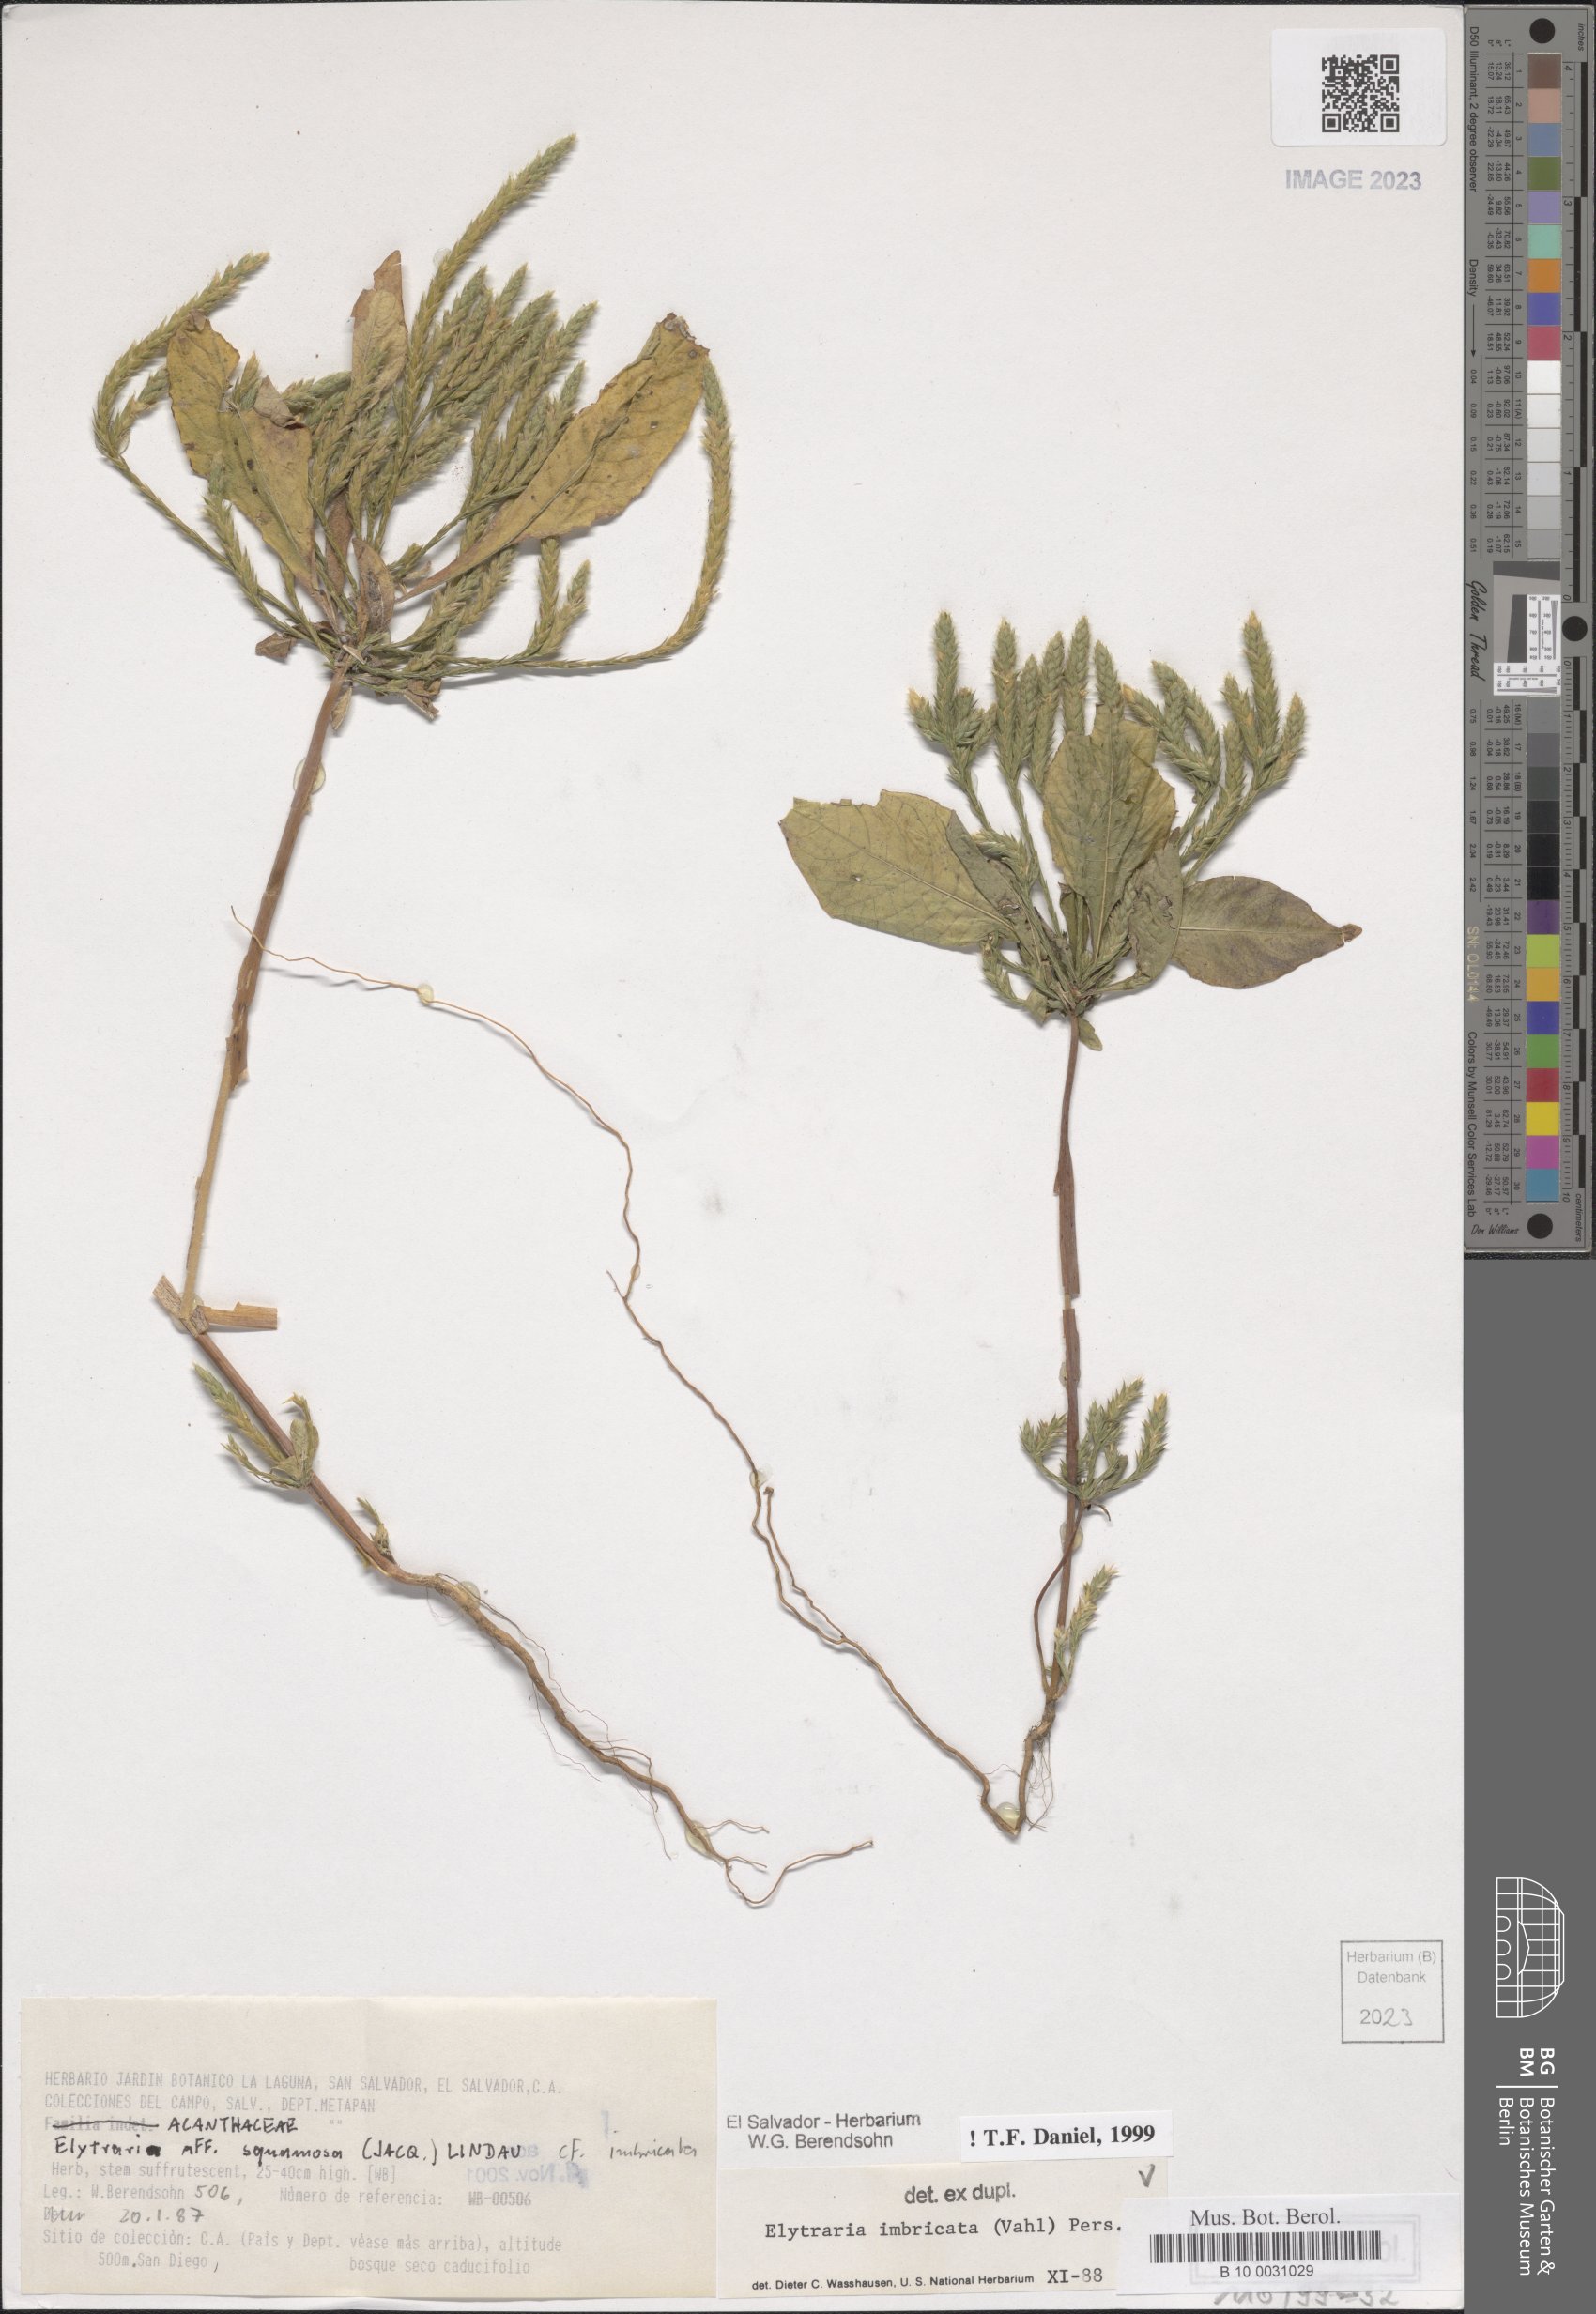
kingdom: Plantae
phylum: Tracheophyta
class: Magnoliopsida
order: Lamiales
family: Acanthaceae
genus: Elytraria
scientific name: Elytraria imbricata
